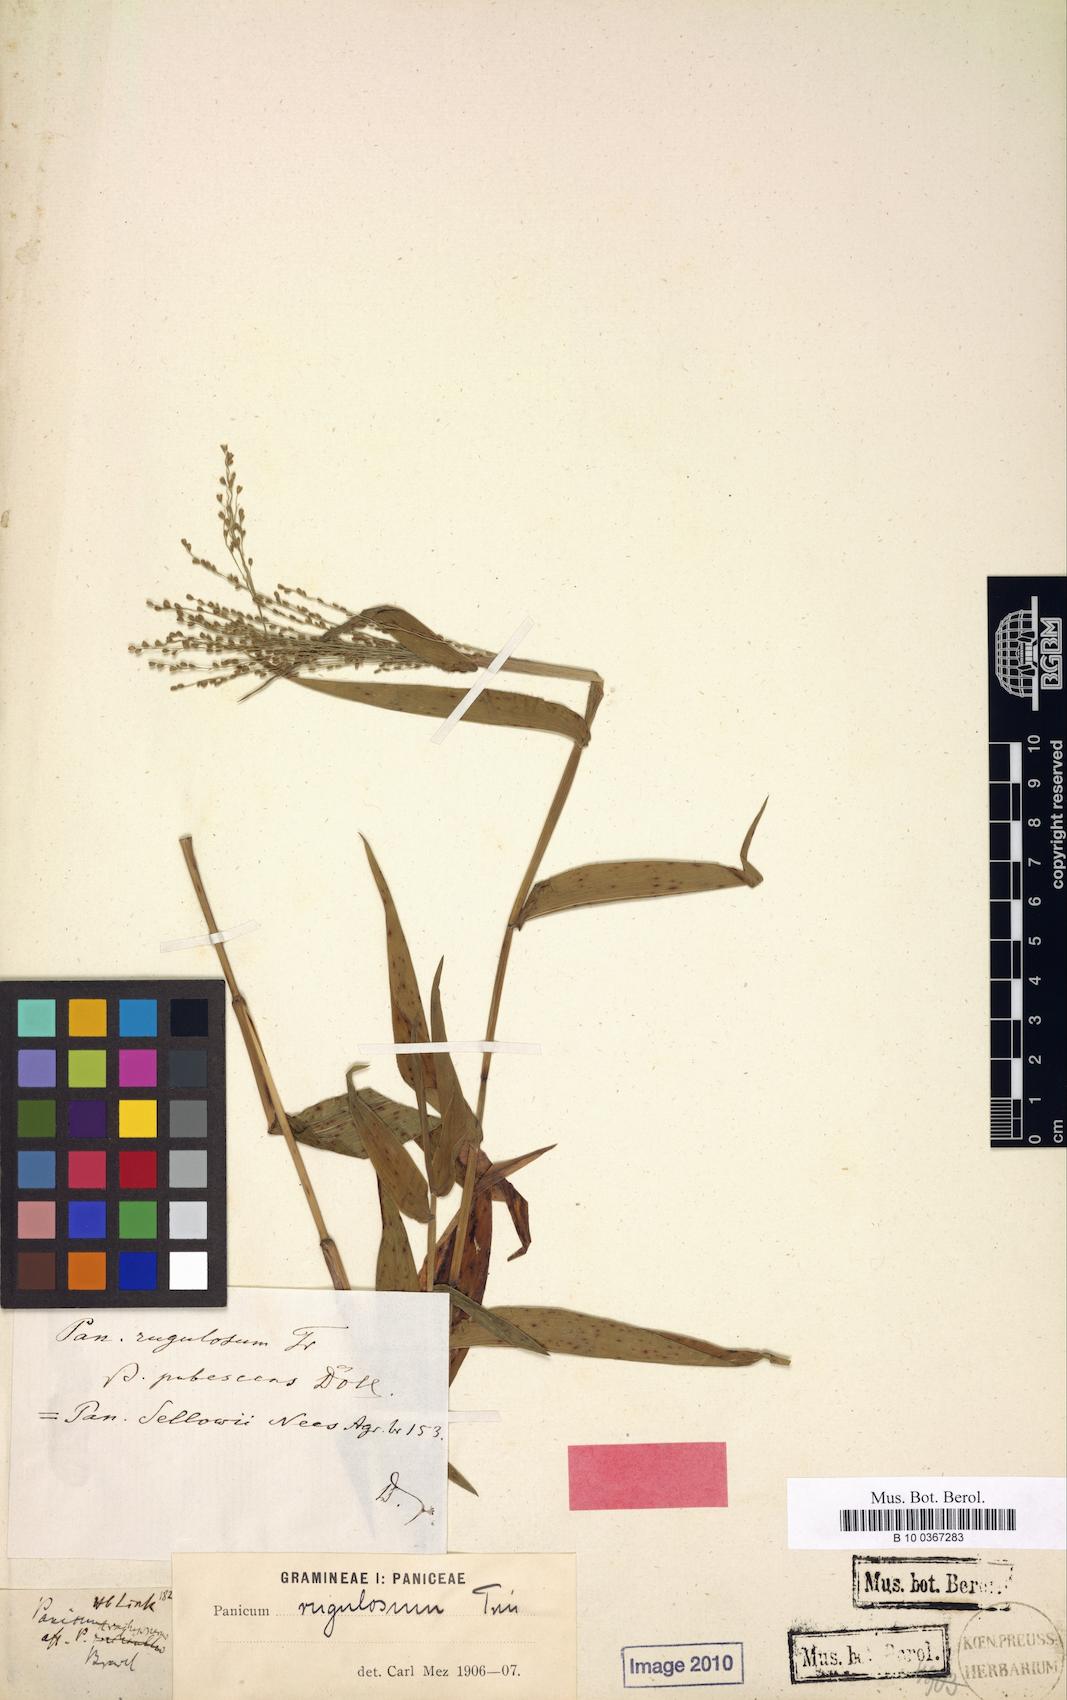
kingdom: Plantae
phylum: Tracheophyta
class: Liliopsida
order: Poales
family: Poaceae
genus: Panicum
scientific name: Panicum millegrana
